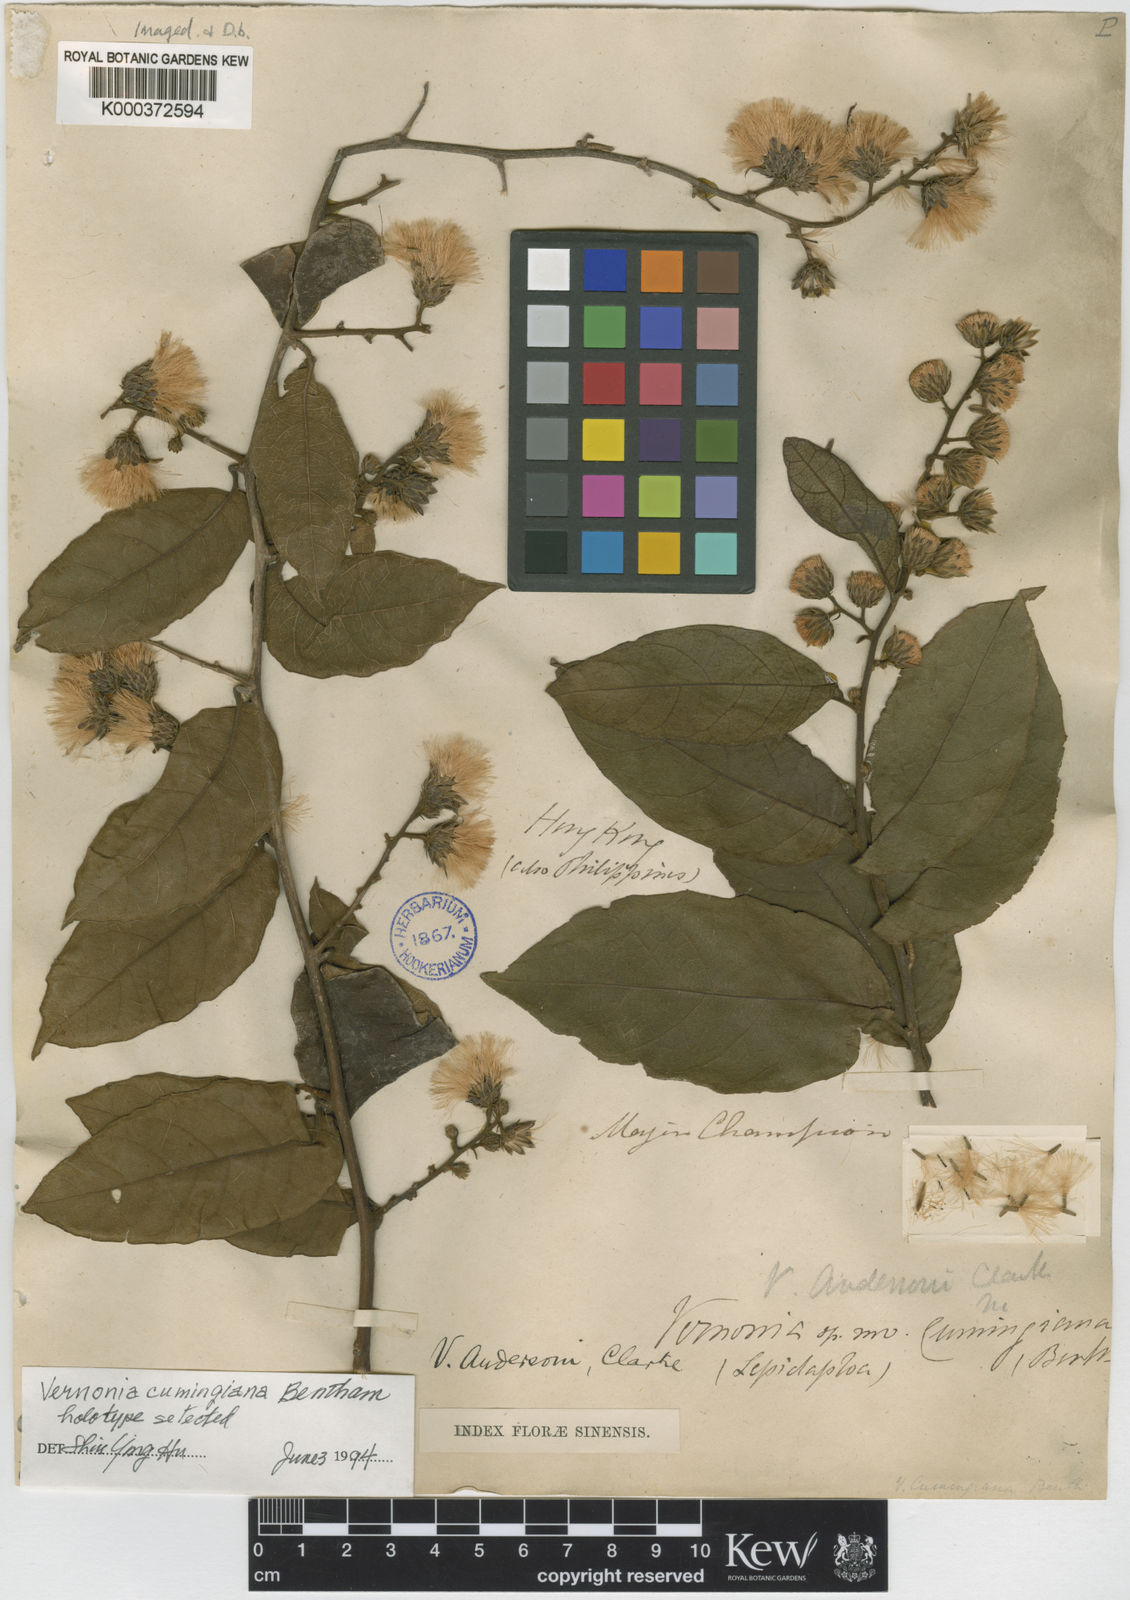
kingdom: Plantae
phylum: Tracheophyta
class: Magnoliopsida
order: Asterales
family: Asteraceae
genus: Decaneuropsis
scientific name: Decaneuropsis cumingiana
